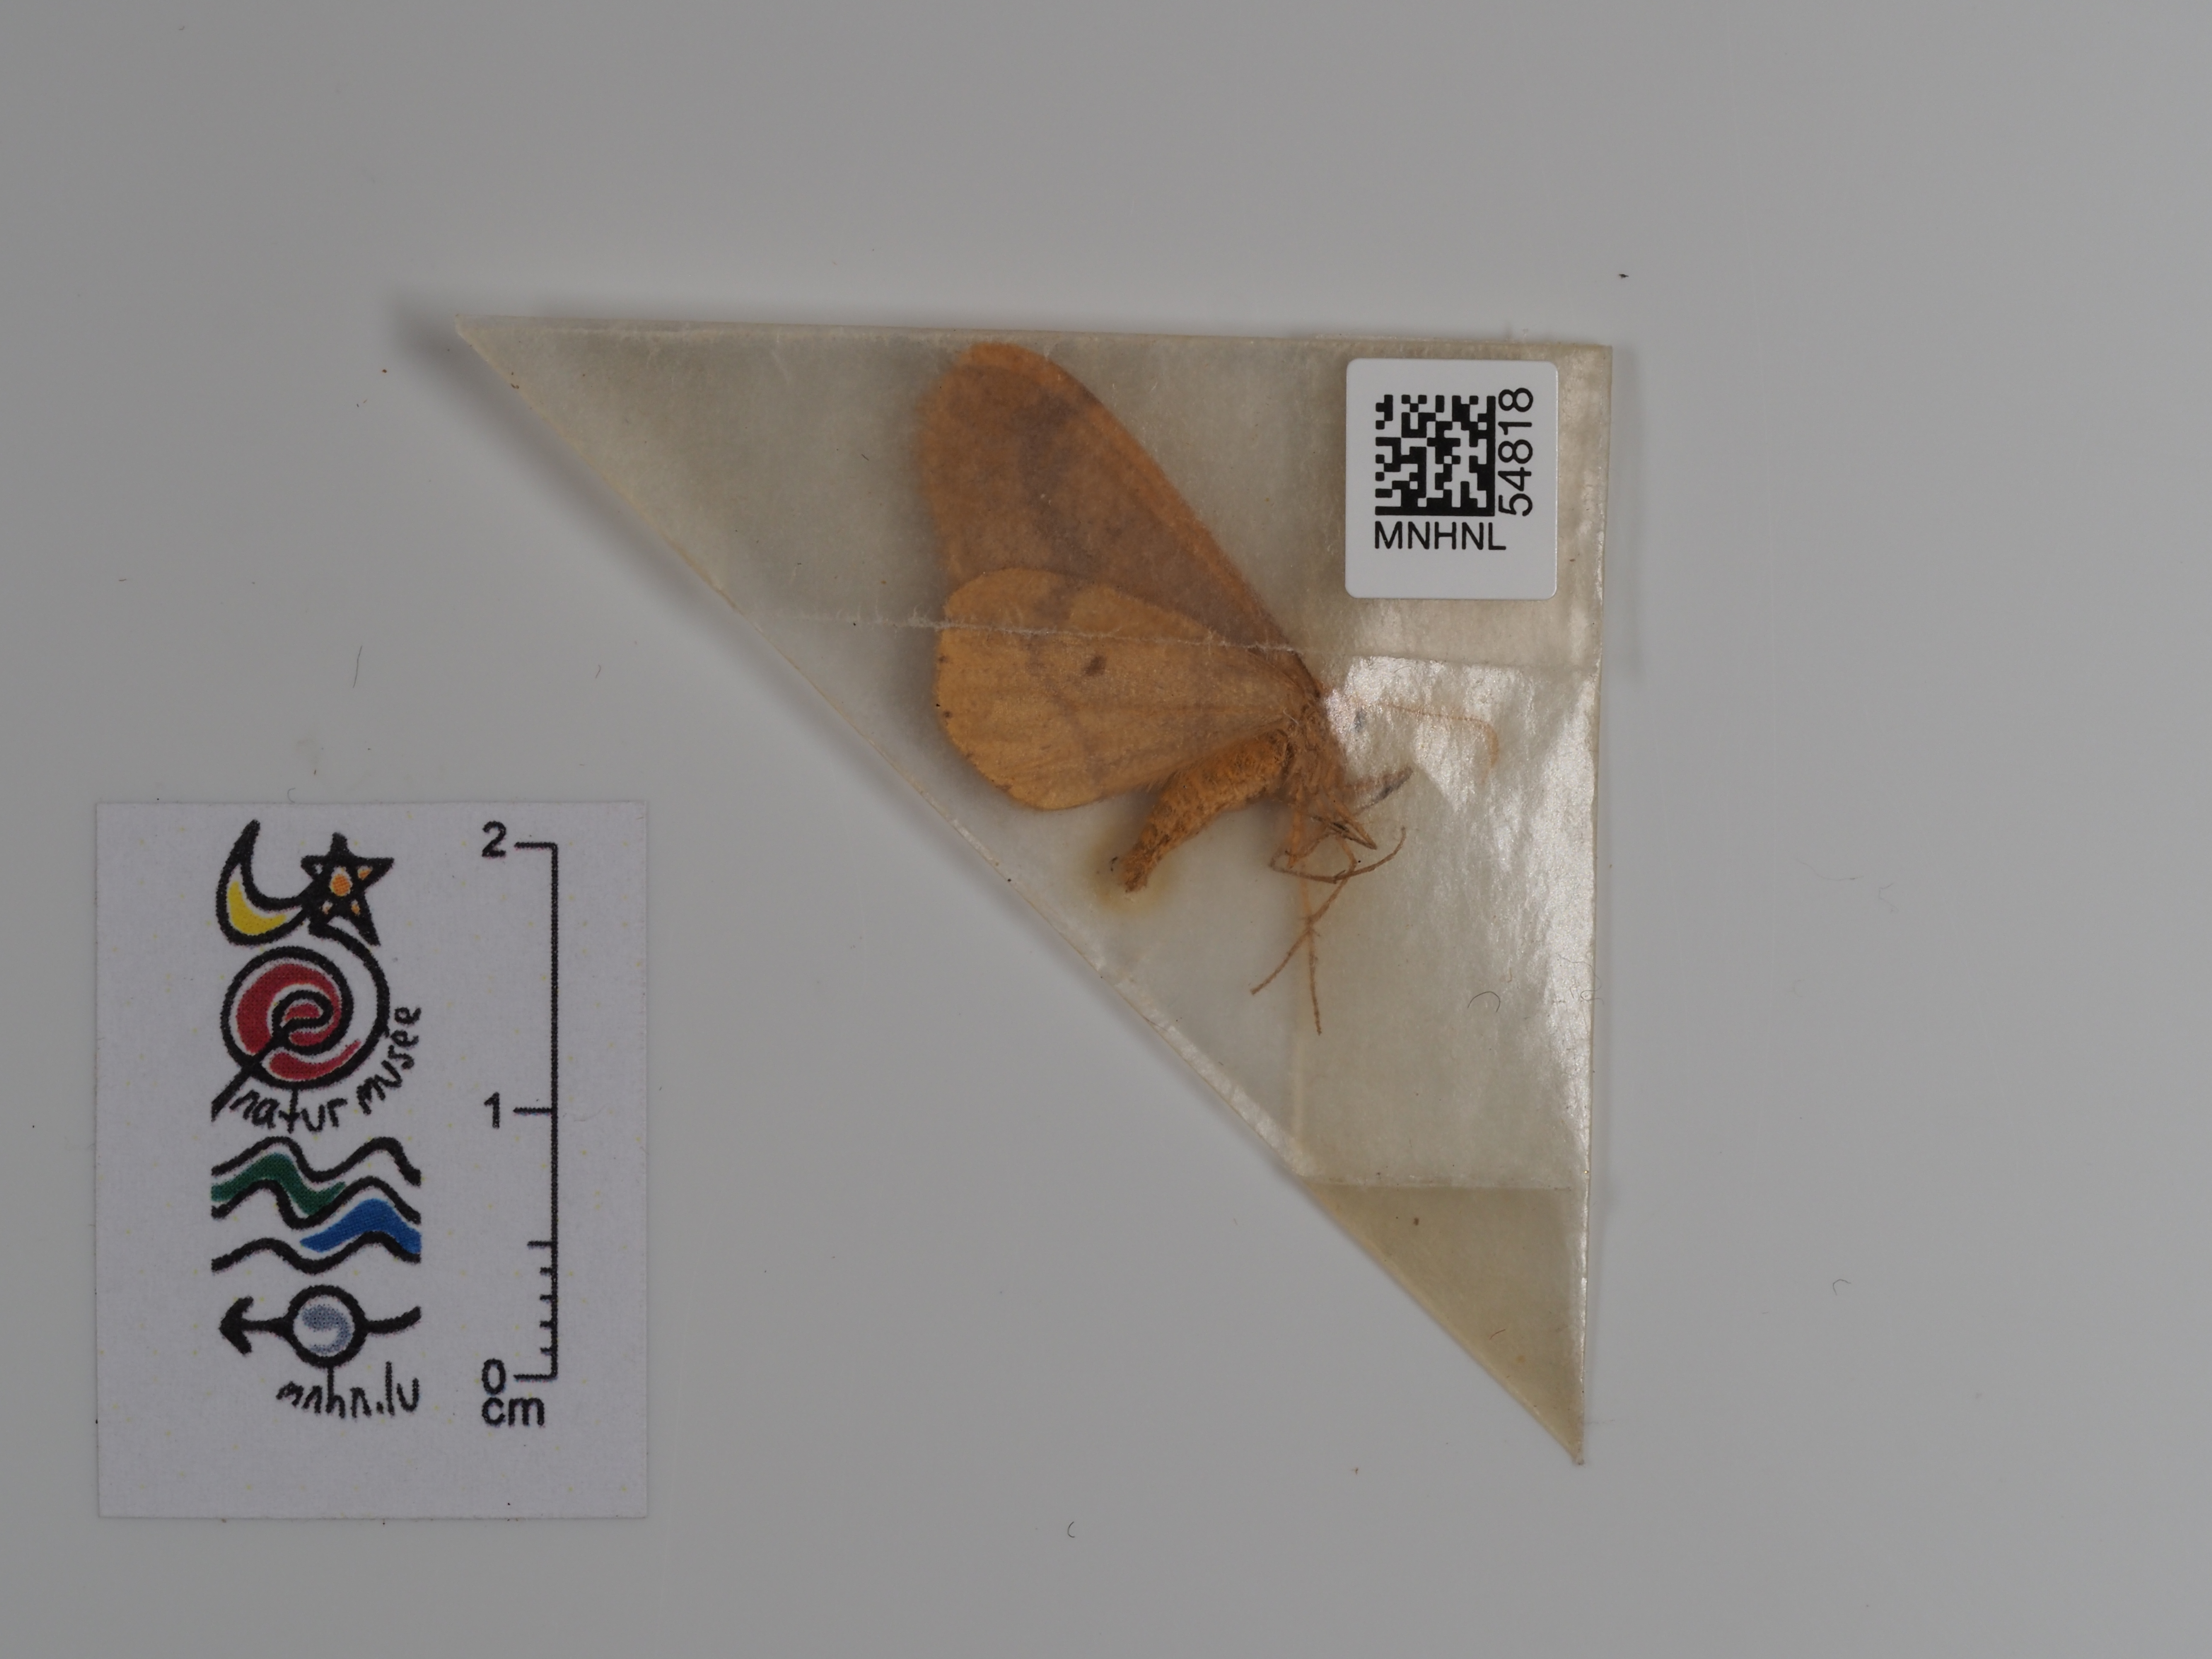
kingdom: Animalia
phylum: Arthropoda
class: Insecta
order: Lepidoptera
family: Geometridae
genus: Agriopis
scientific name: Agriopis aurantiaria
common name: Scarce umber
